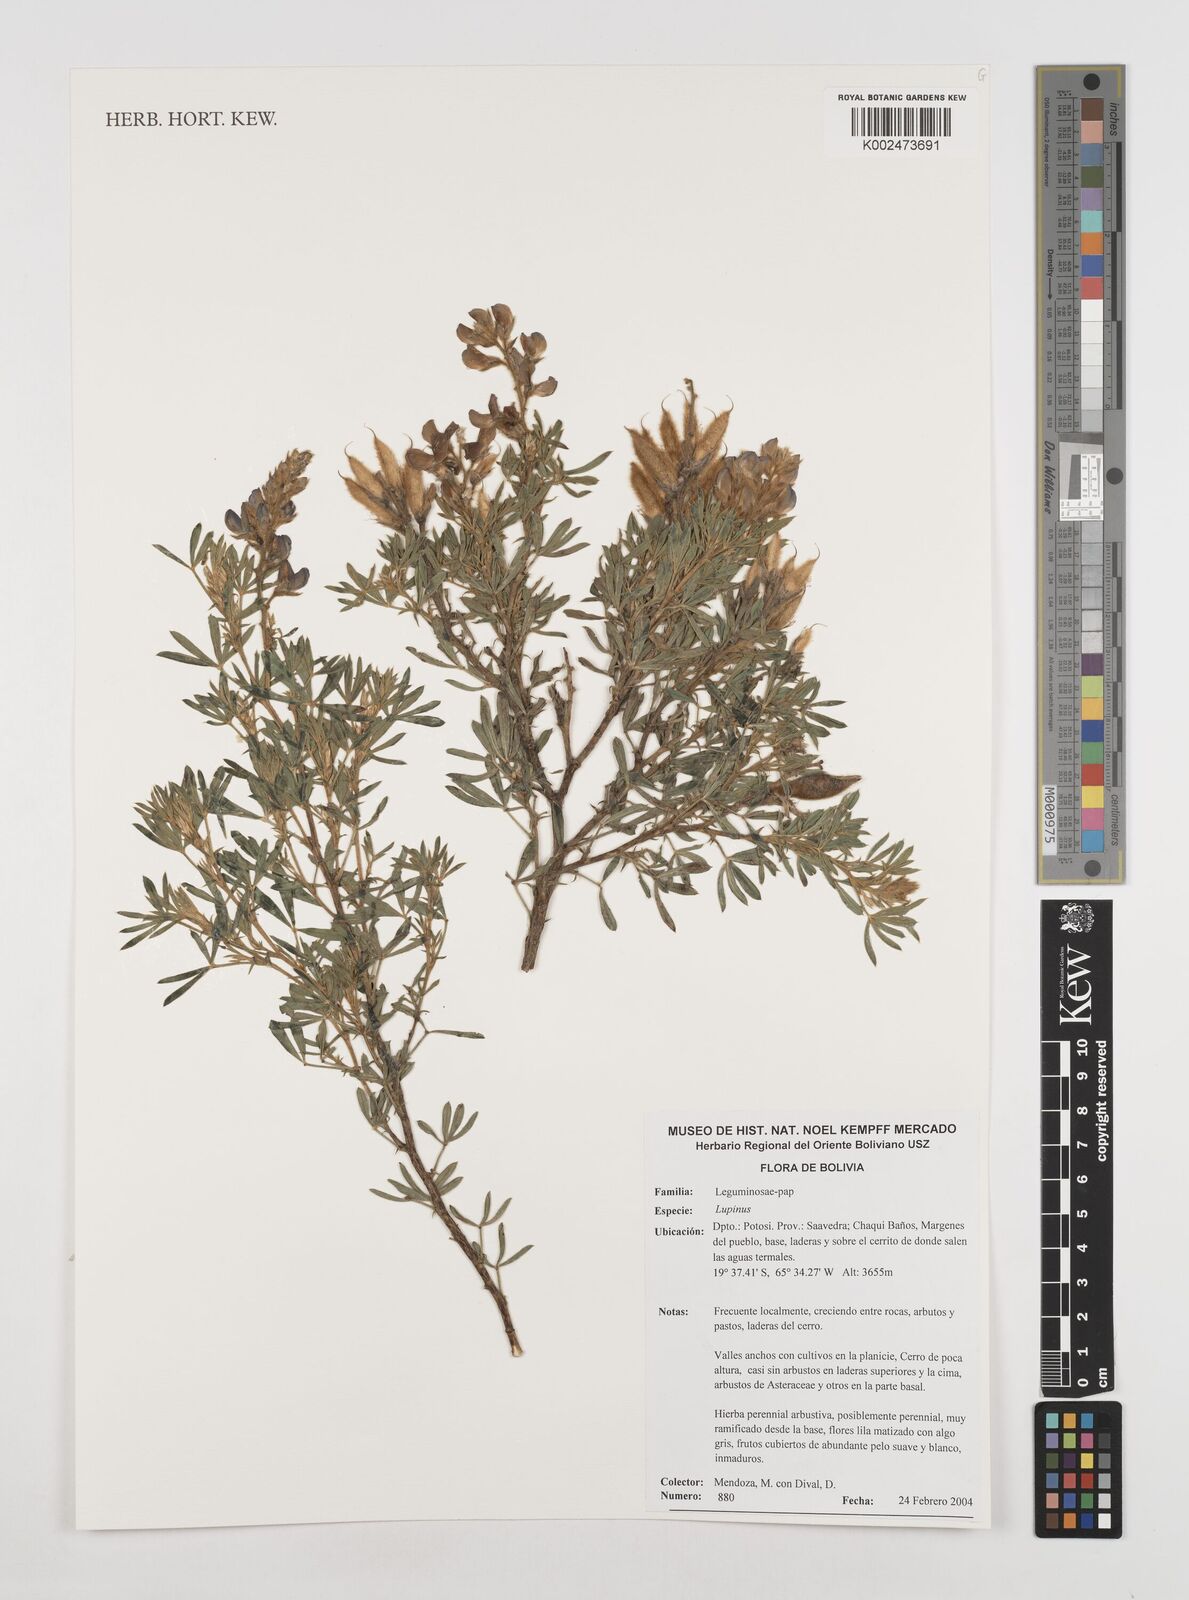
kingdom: Plantae
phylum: Tracheophyta
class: Magnoliopsida
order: Fabales
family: Fabaceae
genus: Lupinus
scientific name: Lupinus
